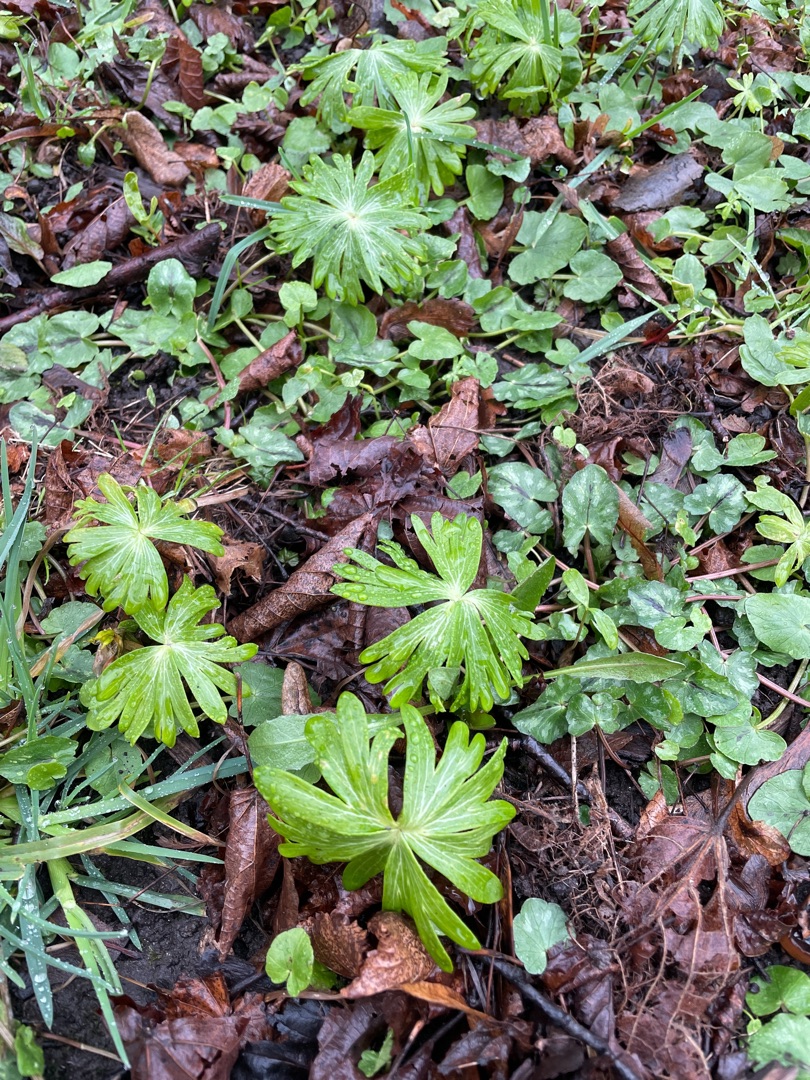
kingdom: Plantae
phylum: Tracheophyta
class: Magnoliopsida
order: Ranunculales
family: Ranunculaceae
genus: Eranthis
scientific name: Eranthis hyemalis
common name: Erantis
